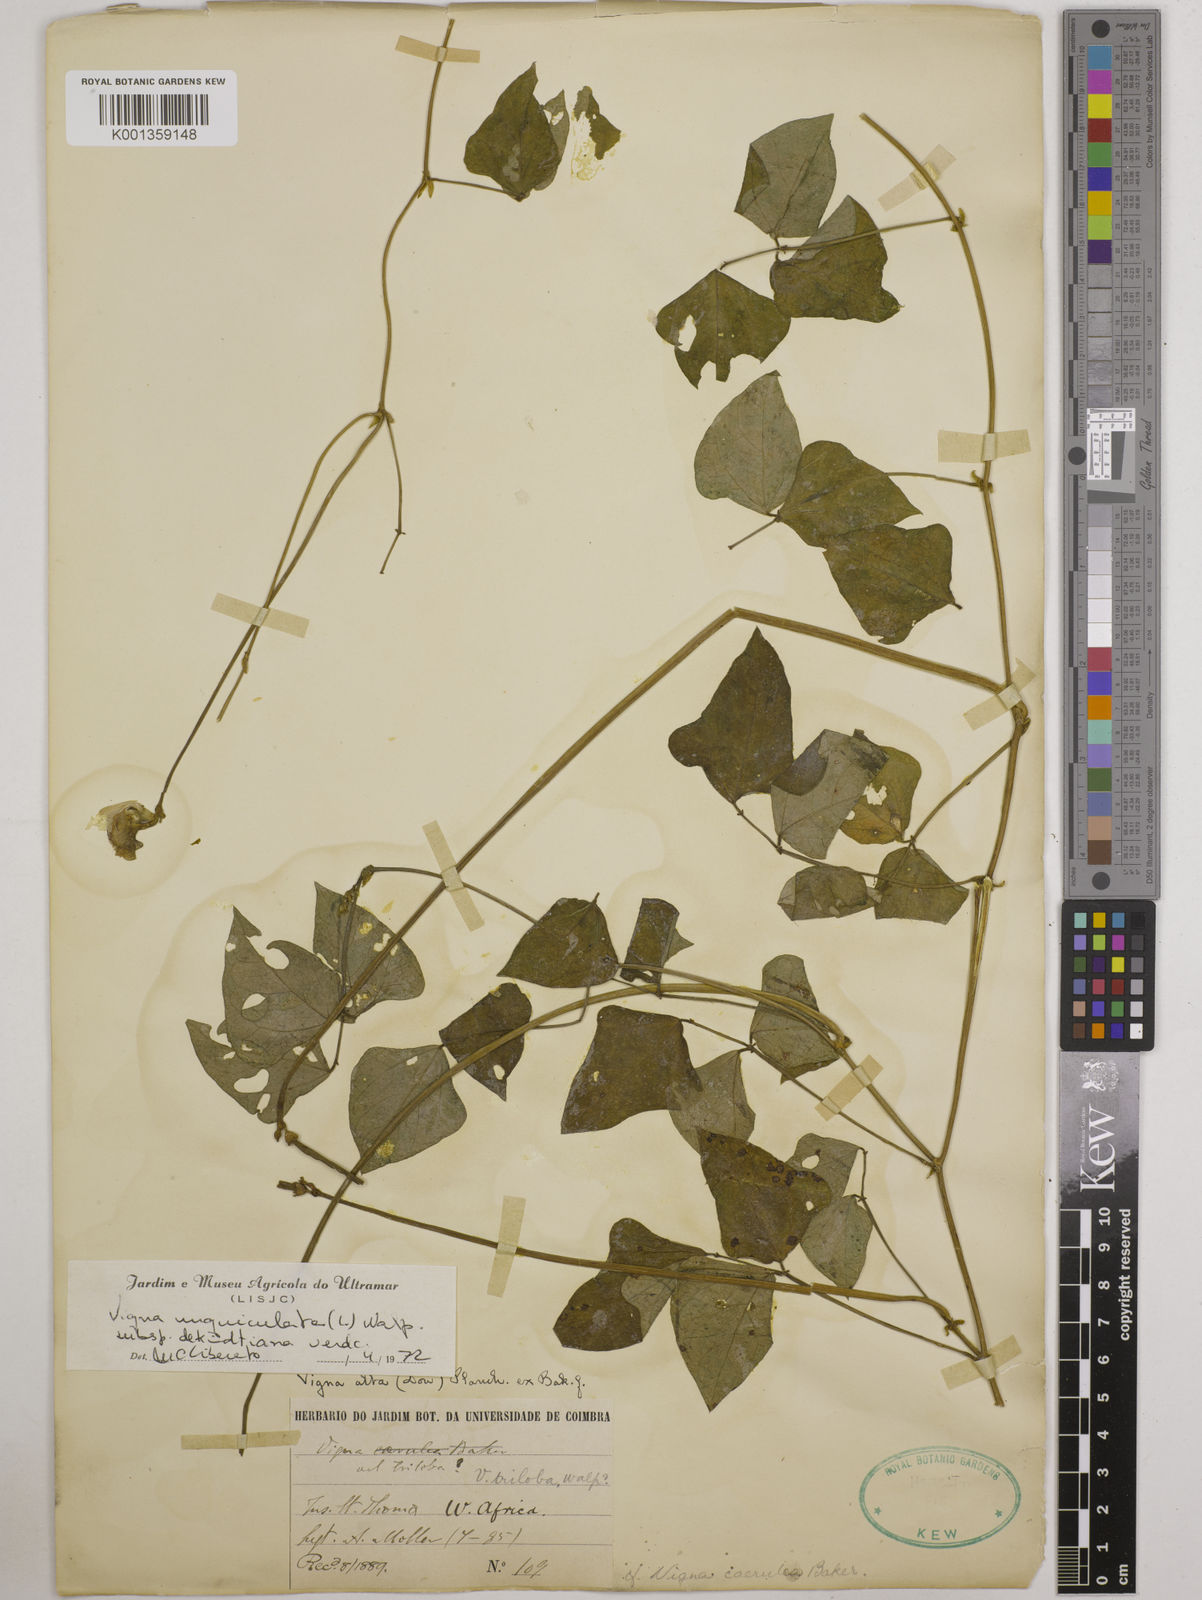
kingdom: Plantae
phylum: Tracheophyta
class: Magnoliopsida
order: Fabales
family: Fabaceae
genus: Vigna
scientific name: Vigna
